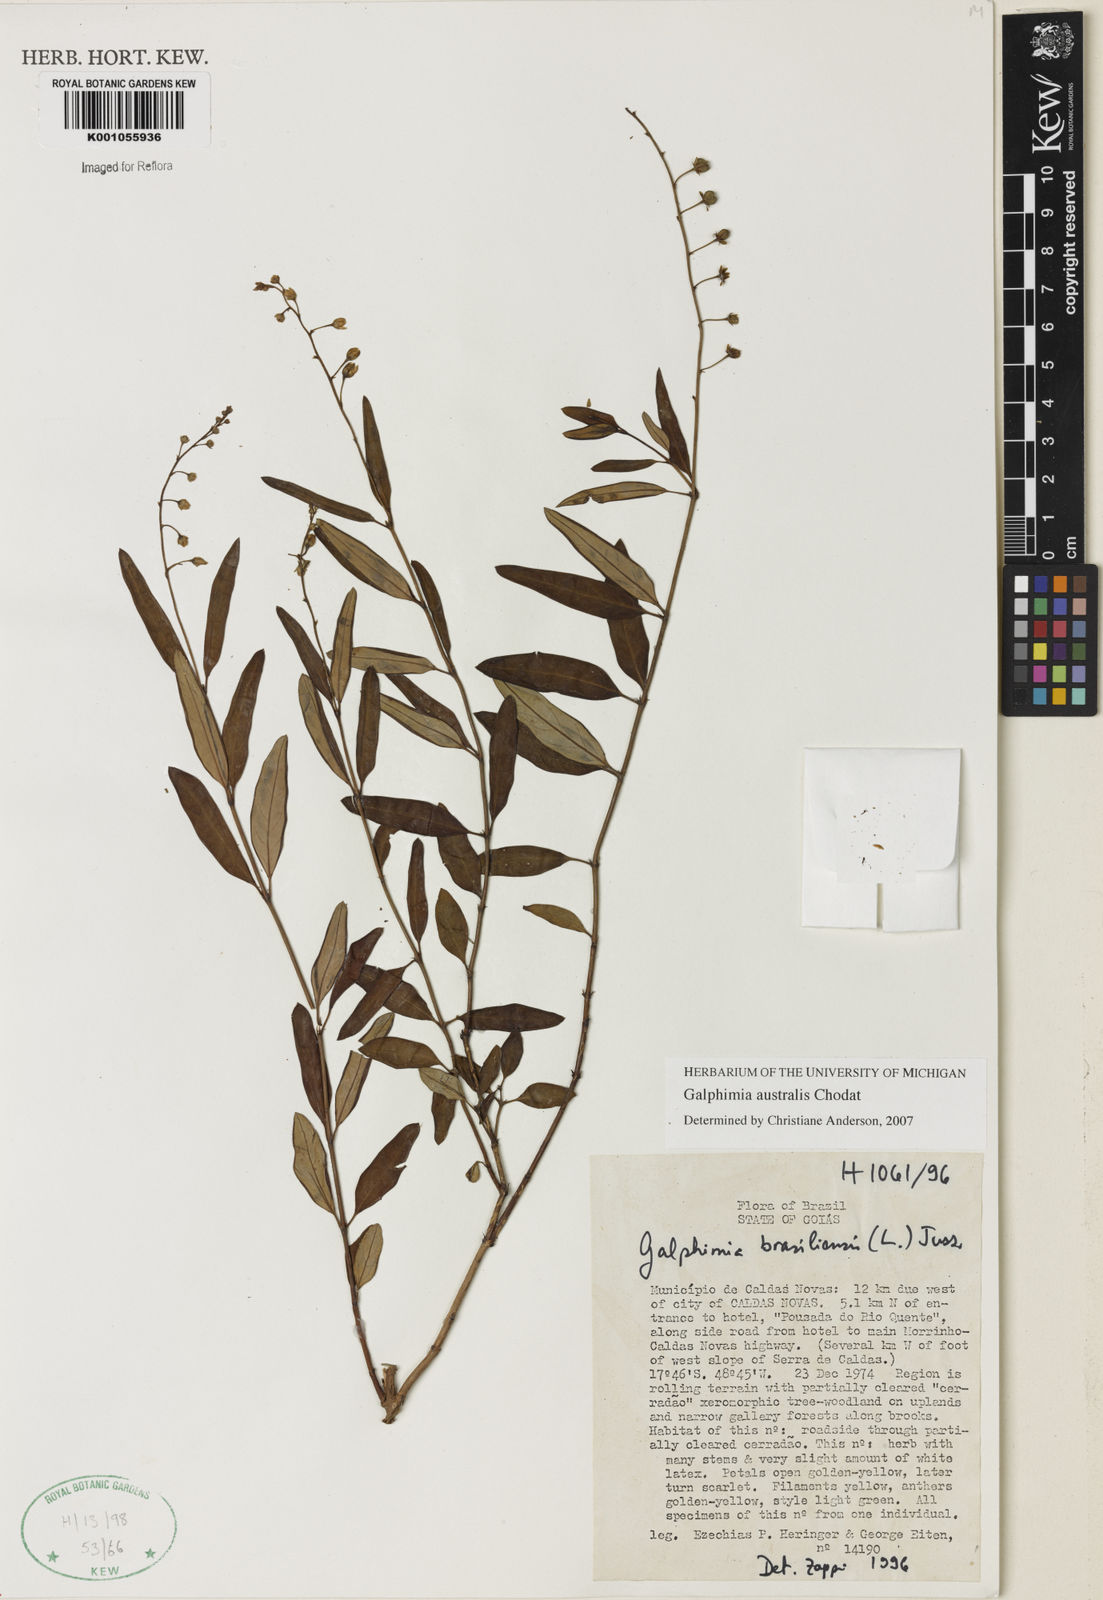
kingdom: Plantae
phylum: Tracheophyta
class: Magnoliopsida
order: Malpighiales
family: Malpighiaceae
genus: Galphimia
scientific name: Galphimia brasiliensis
